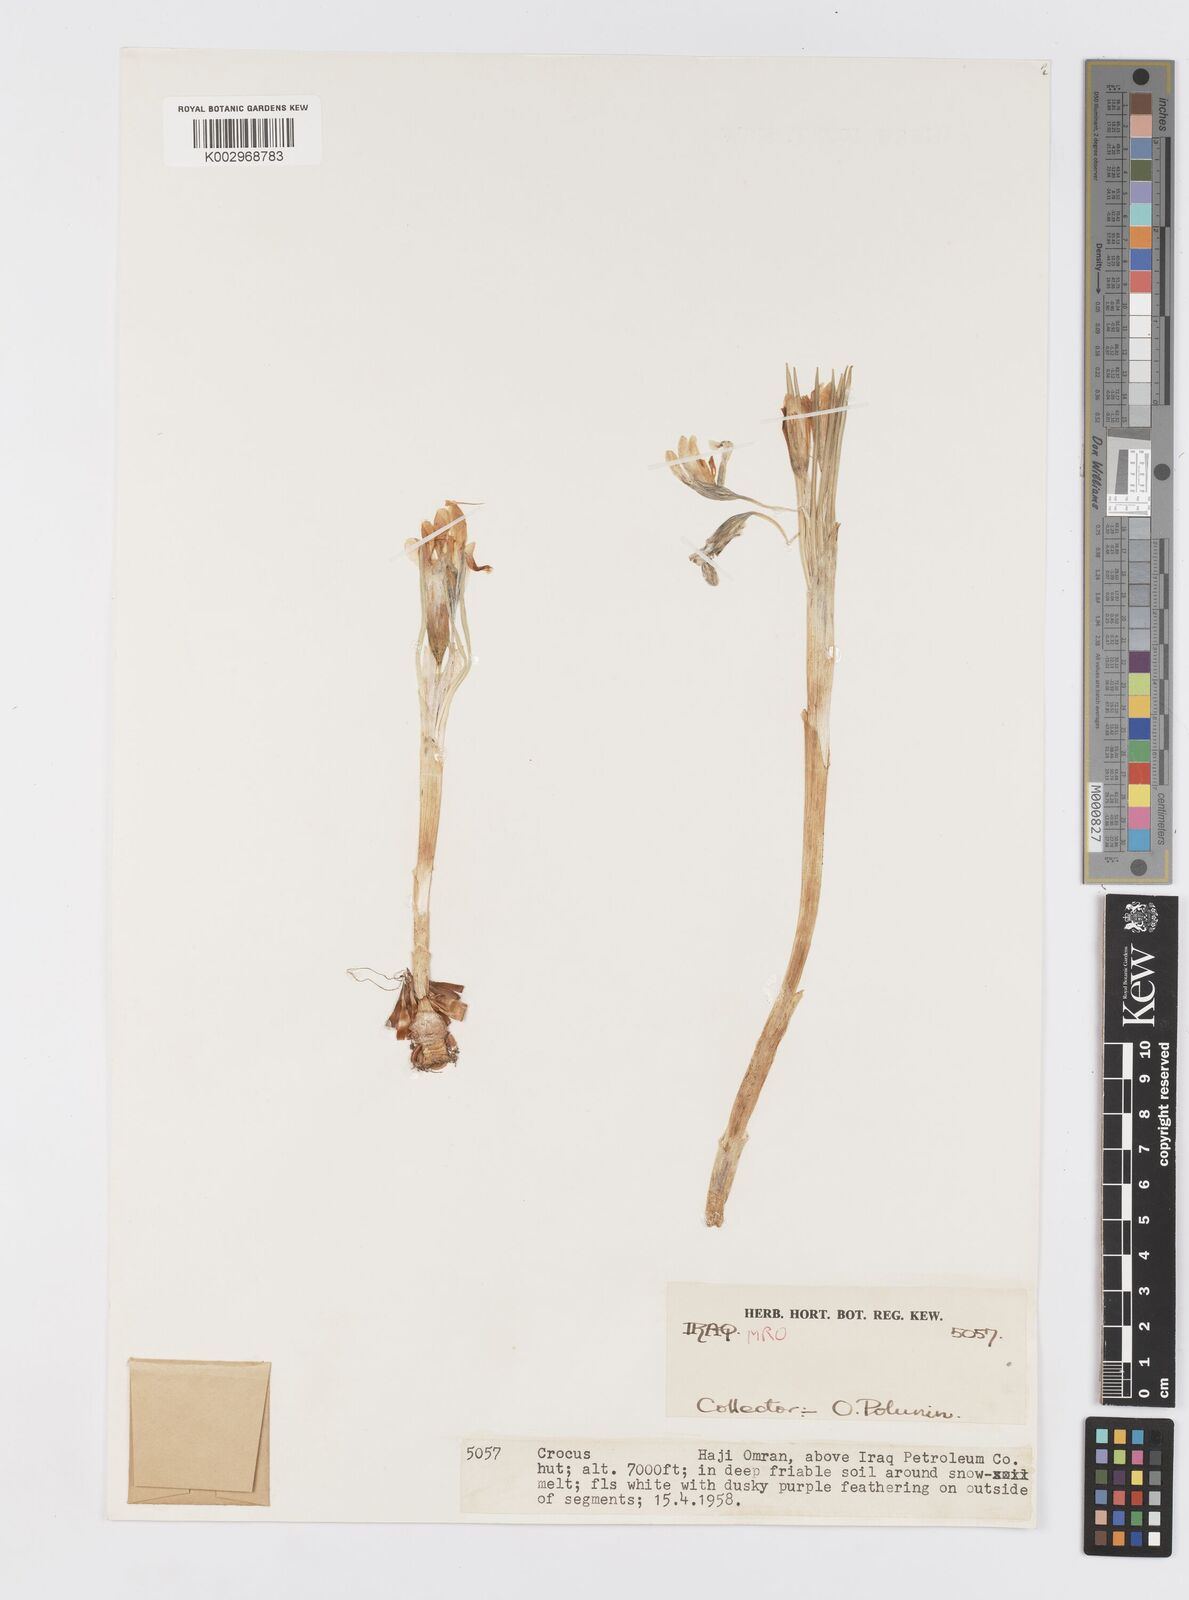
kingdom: Plantae
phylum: Tracheophyta
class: Liliopsida
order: Asparagales
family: Iridaceae
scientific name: Iridaceae
